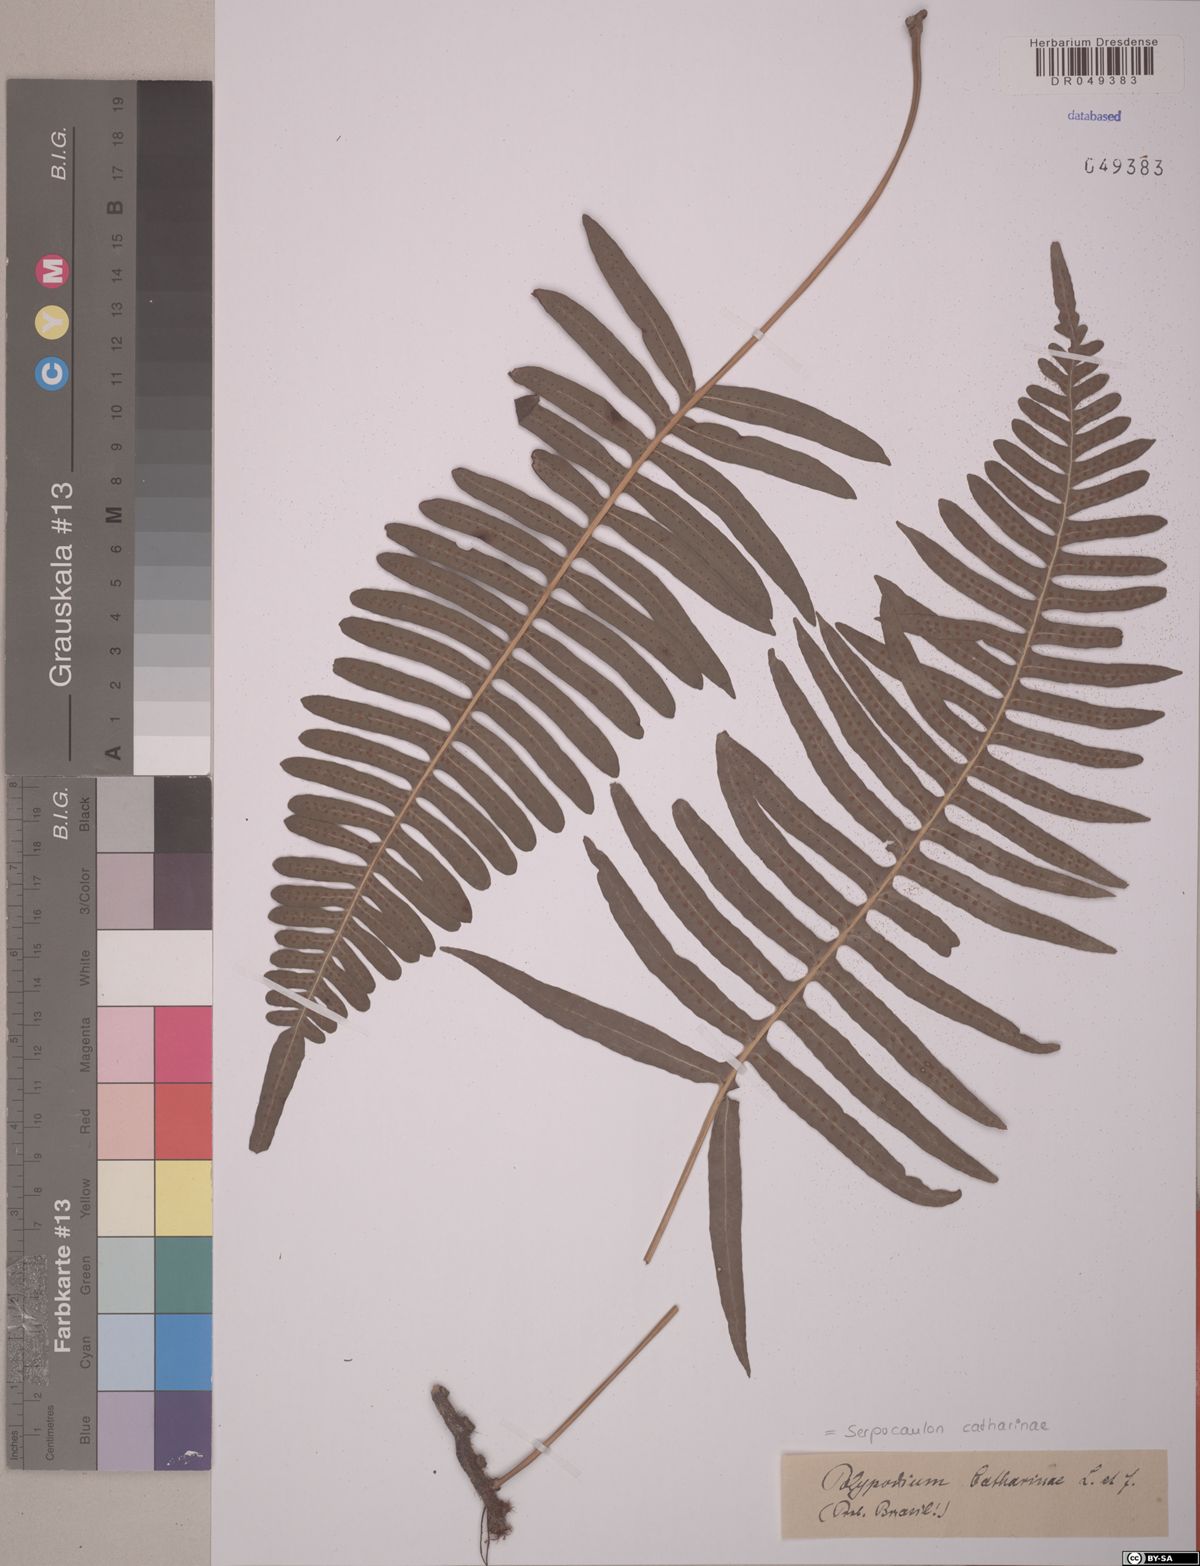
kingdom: Plantae
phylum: Tracheophyta
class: Polypodiopsida
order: Polypodiales
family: Polypodiaceae
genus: Serpocaulon
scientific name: Serpocaulon catharinae
